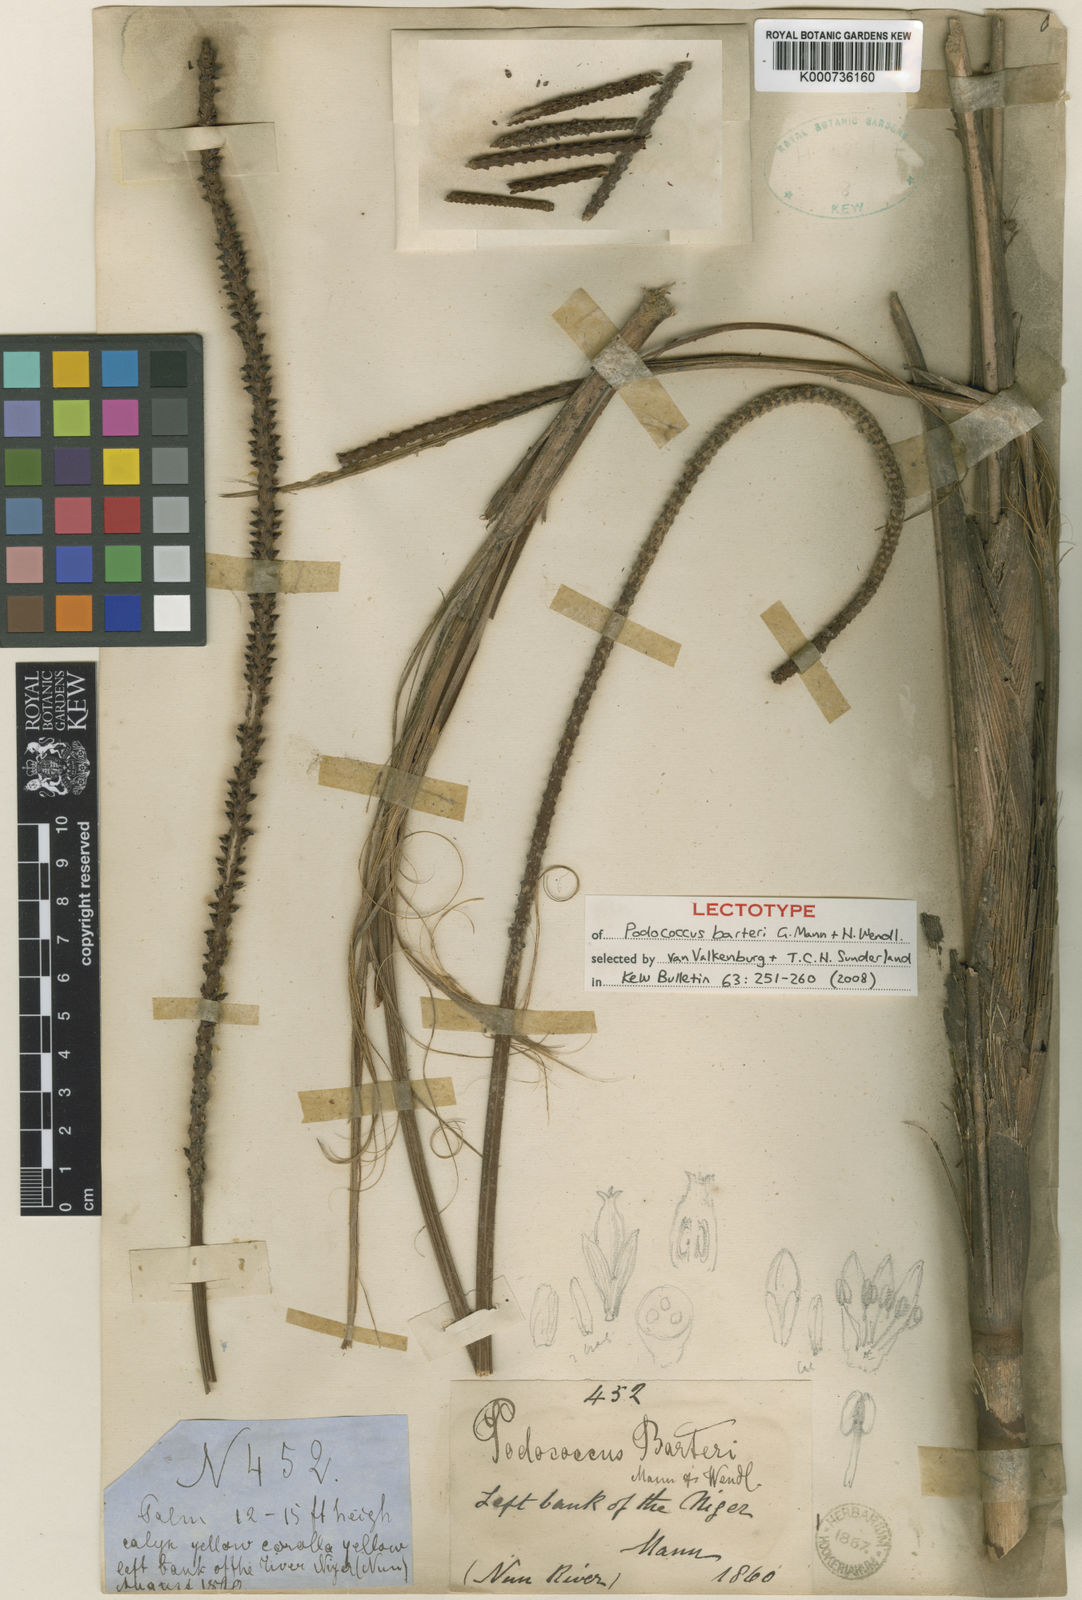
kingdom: Plantae
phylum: Tracheophyta
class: Liliopsida
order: Arecales
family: Arecaceae
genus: Podococcus
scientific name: Podococcus barteri
